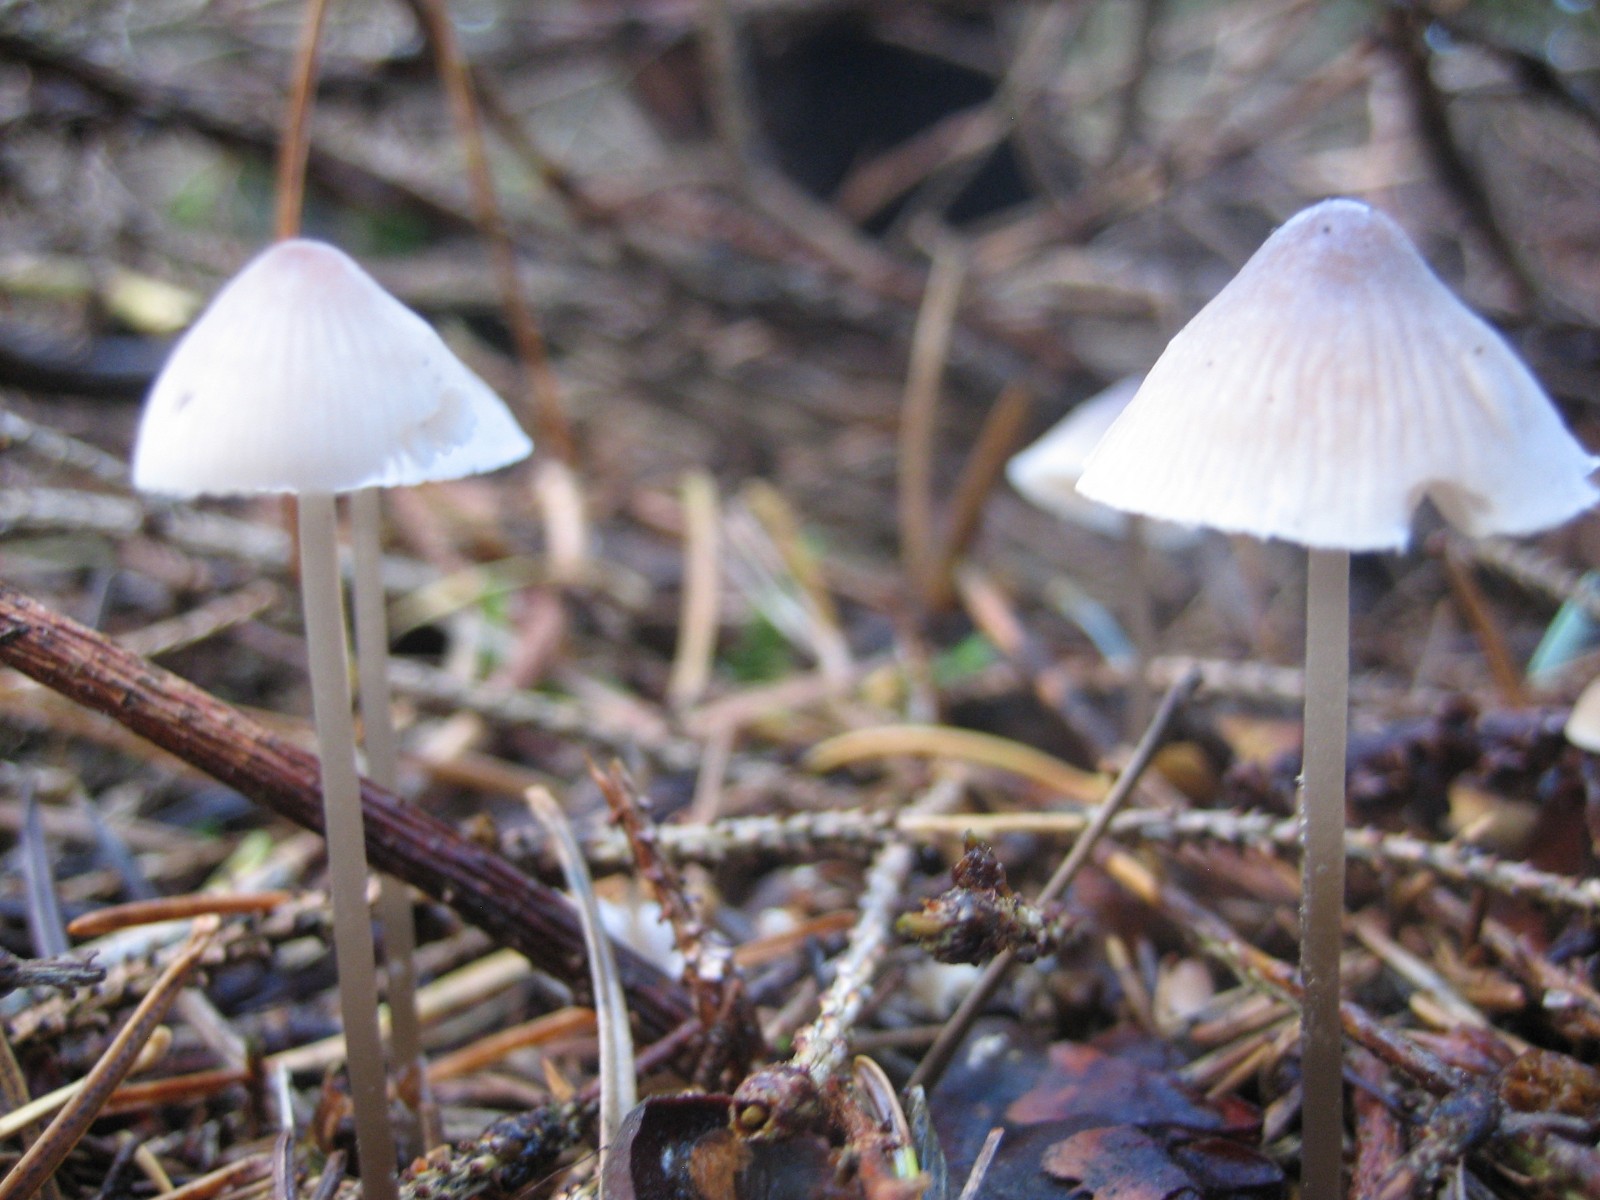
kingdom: Fungi
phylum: Basidiomycota
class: Agaricomycetes
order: Agaricales
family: Mycenaceae
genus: Mycena
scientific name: Mycena metata
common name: rødlig huesvamp
